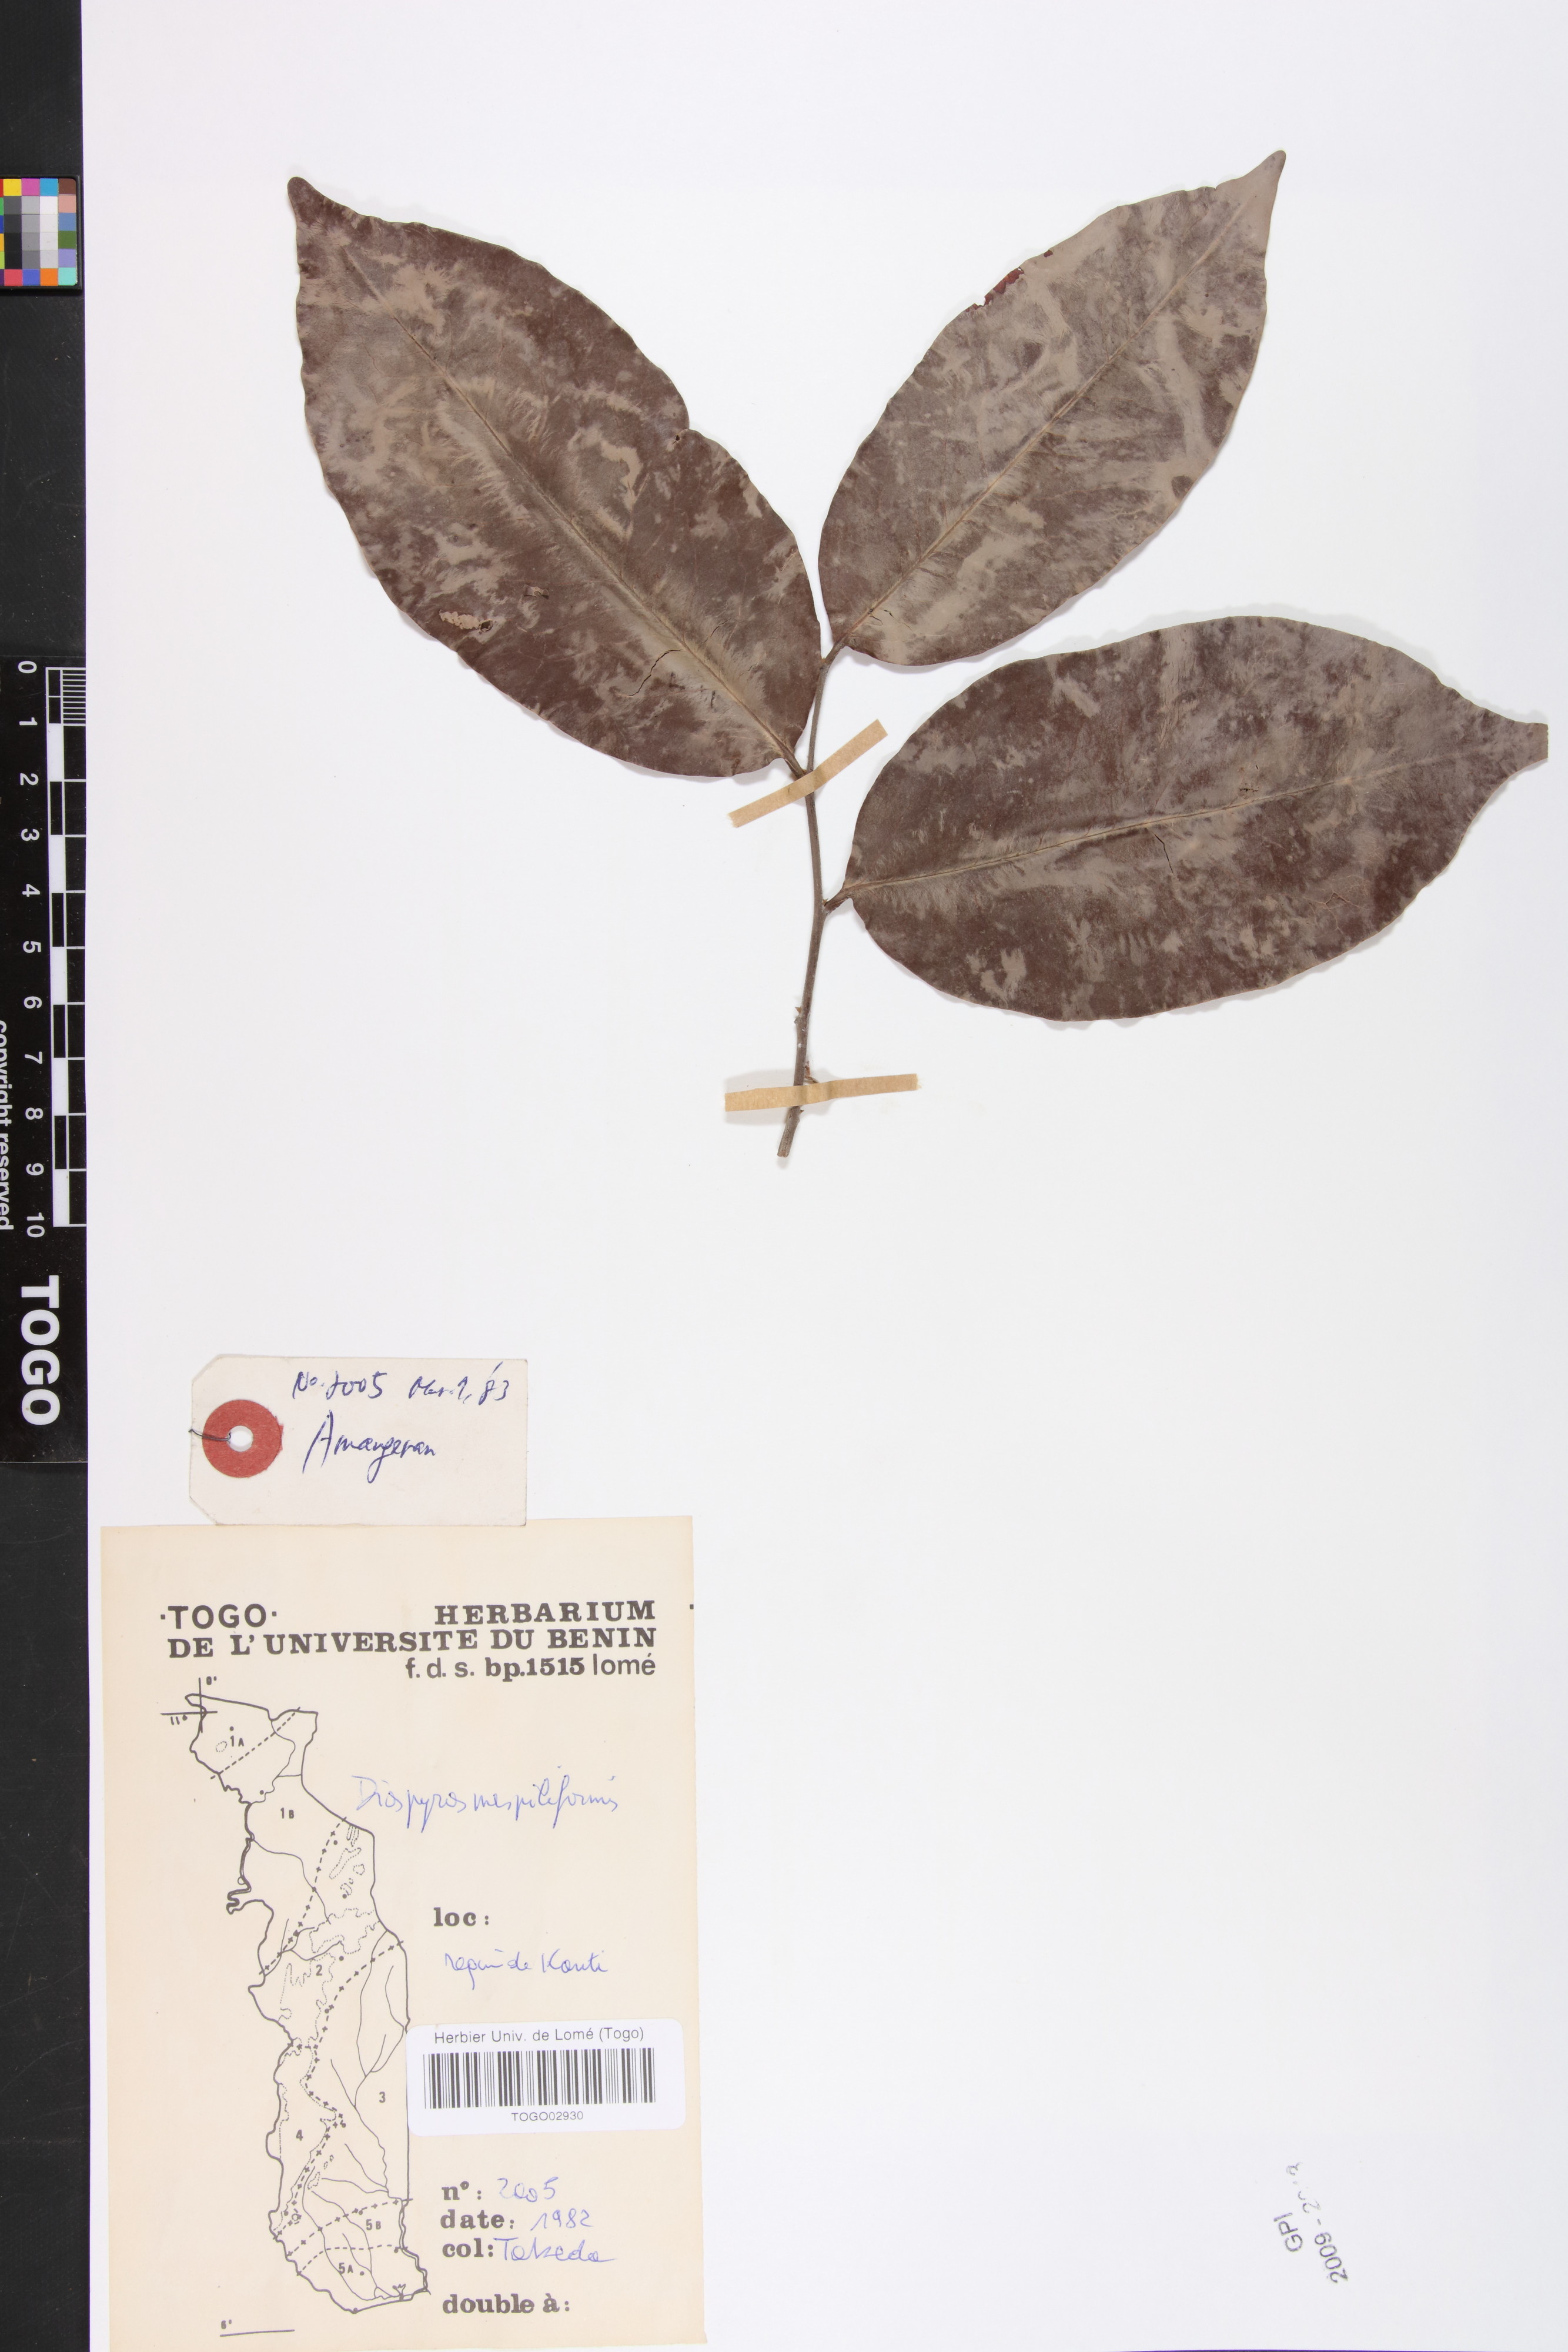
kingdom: Plantae
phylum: Tracheophyta
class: Magnoliopsida
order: Ericales
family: Ebenaceae
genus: Diospyros
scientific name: Diospyros mespiliformis
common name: Ebony diospyros
